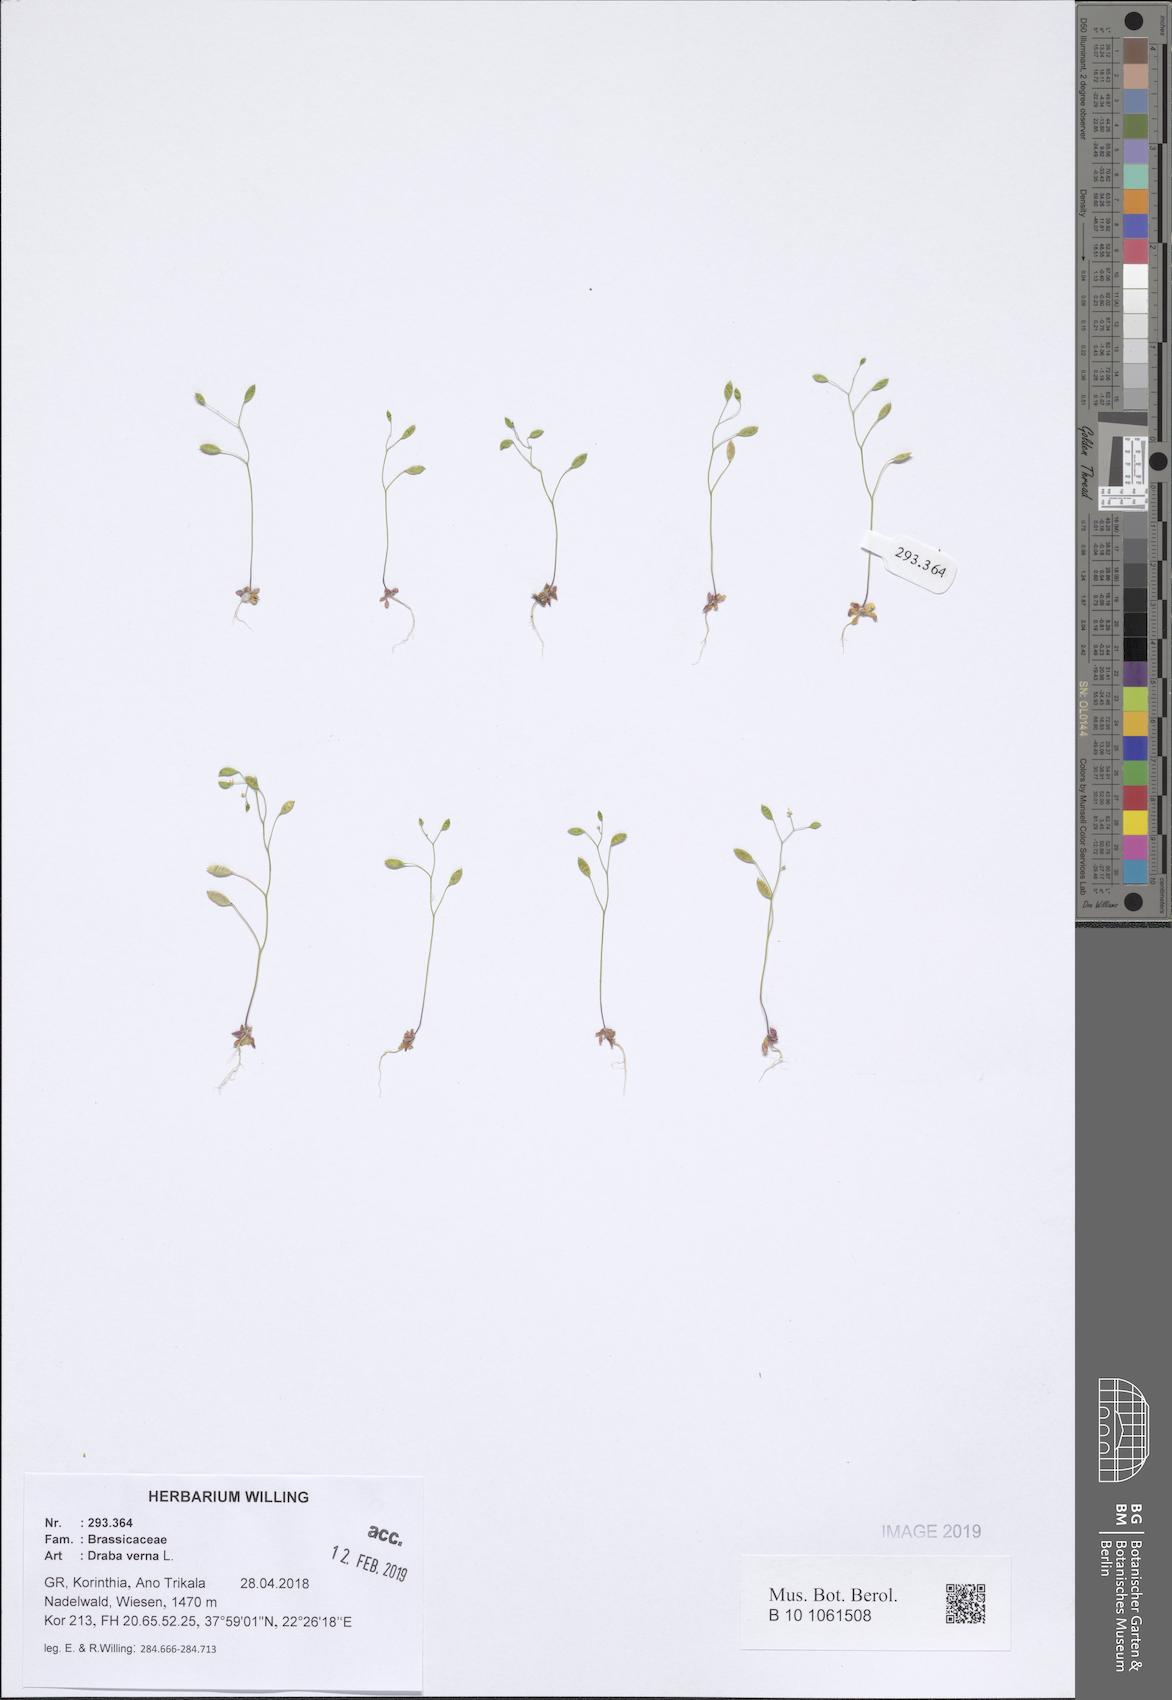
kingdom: Plantae
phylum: Tracheophyta
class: Magnoliopsida
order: Brassicales
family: Brassicaceae
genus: Draba
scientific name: Draba verna
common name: Spring draba
